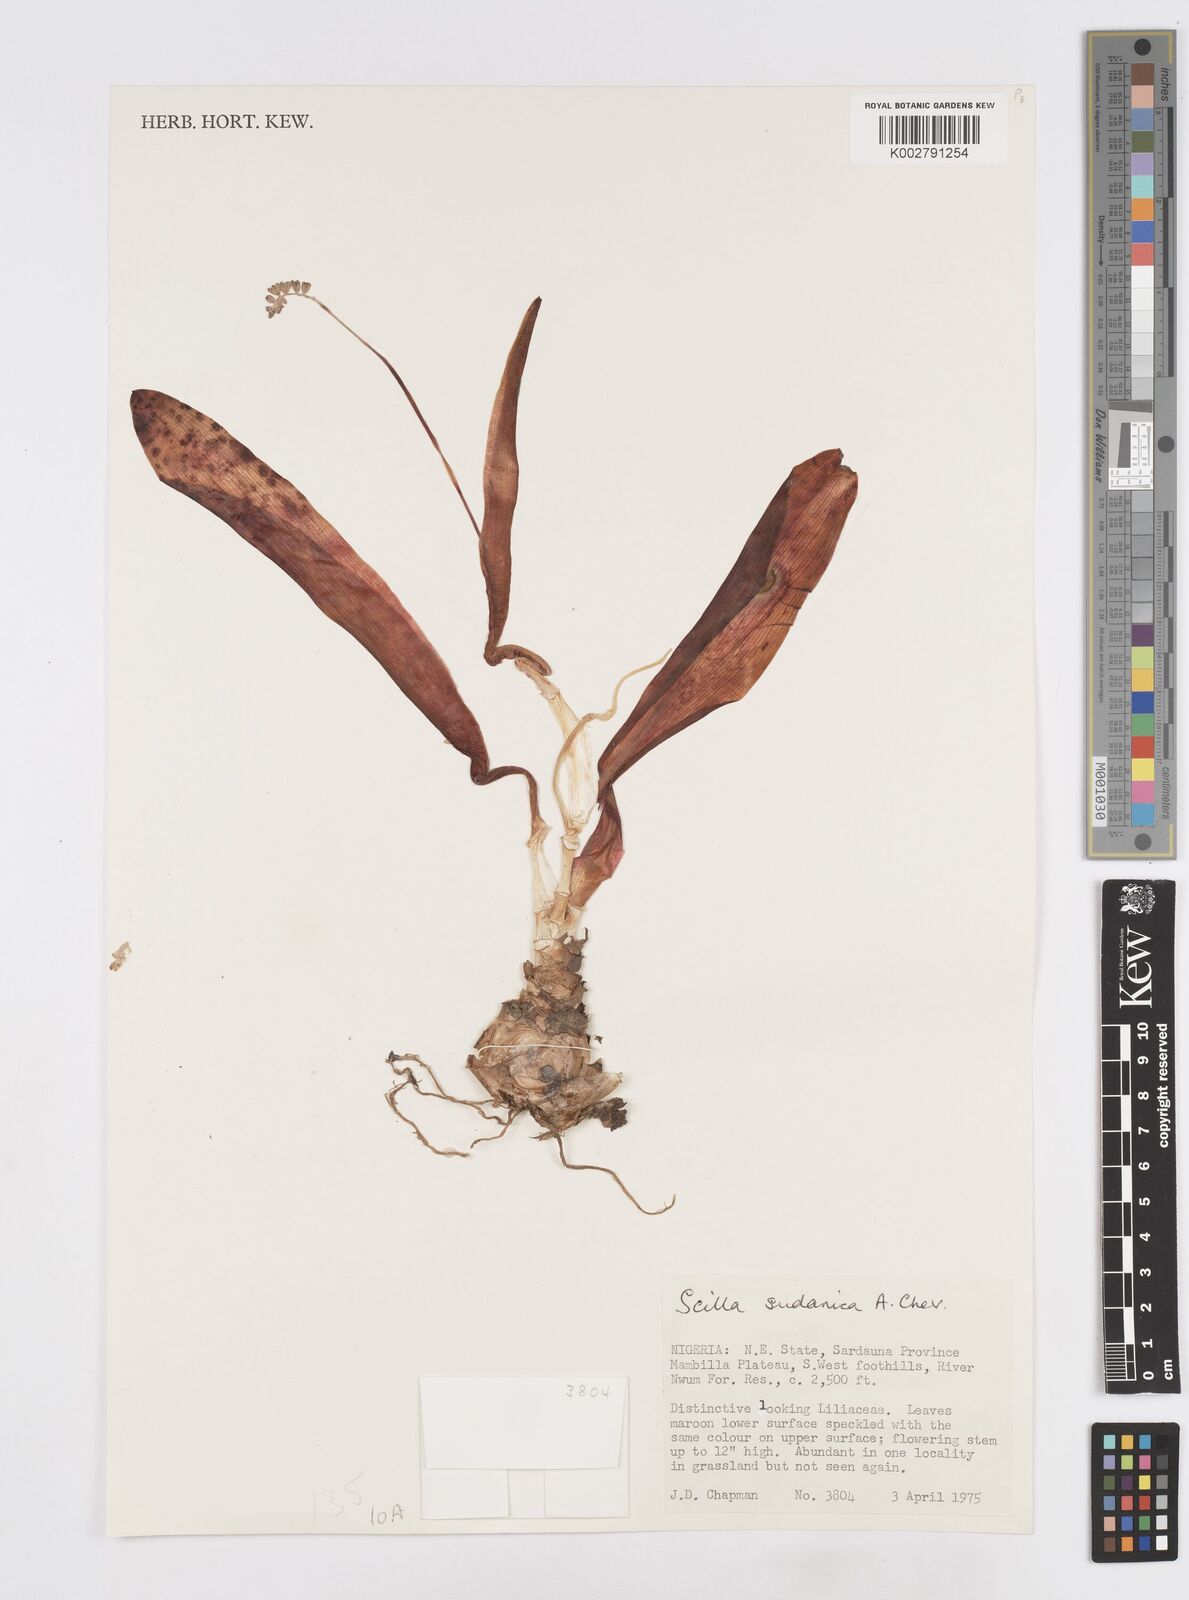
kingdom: Plantae
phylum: Tracheophyta
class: Liliopsida
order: Asparagales
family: Asparagaceae
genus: Ledebouria
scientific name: Ledebouria sudanica
